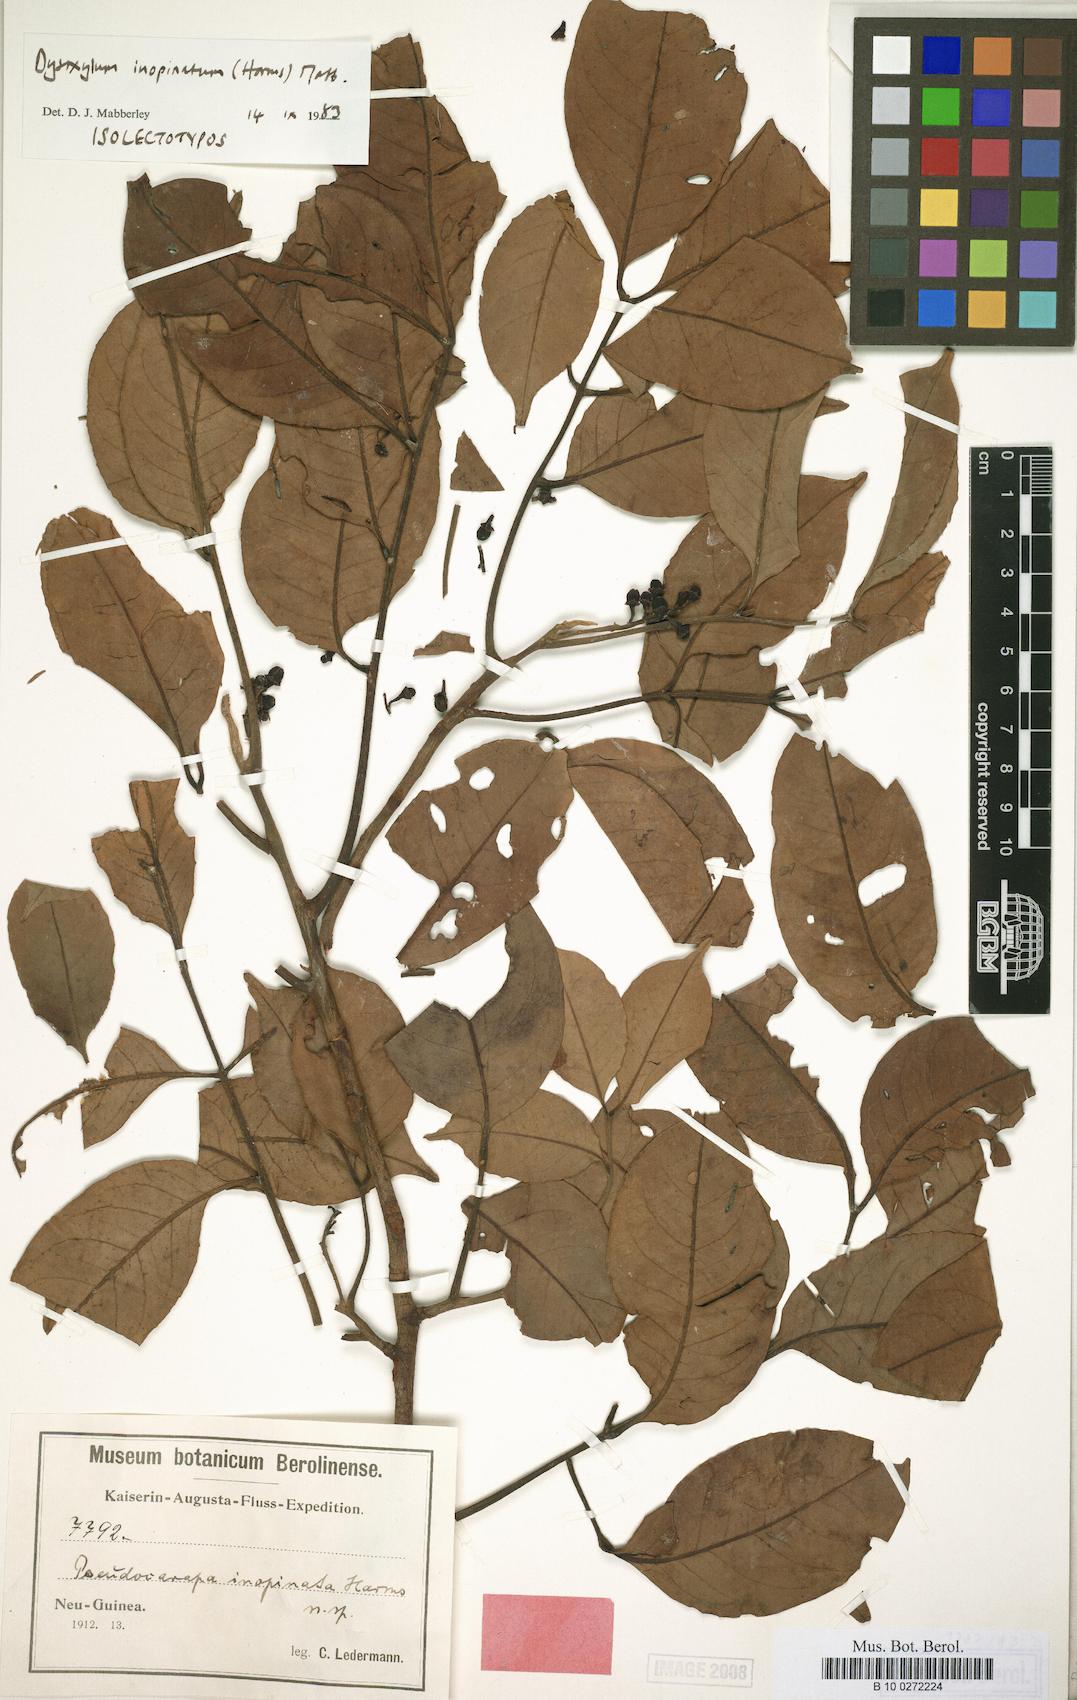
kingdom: Plantae
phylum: Tracheophyta
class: Magnoliopsida
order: Sapindales
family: Meliaceae
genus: Pseudocarapa
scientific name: Pseudocarapa inopinata
